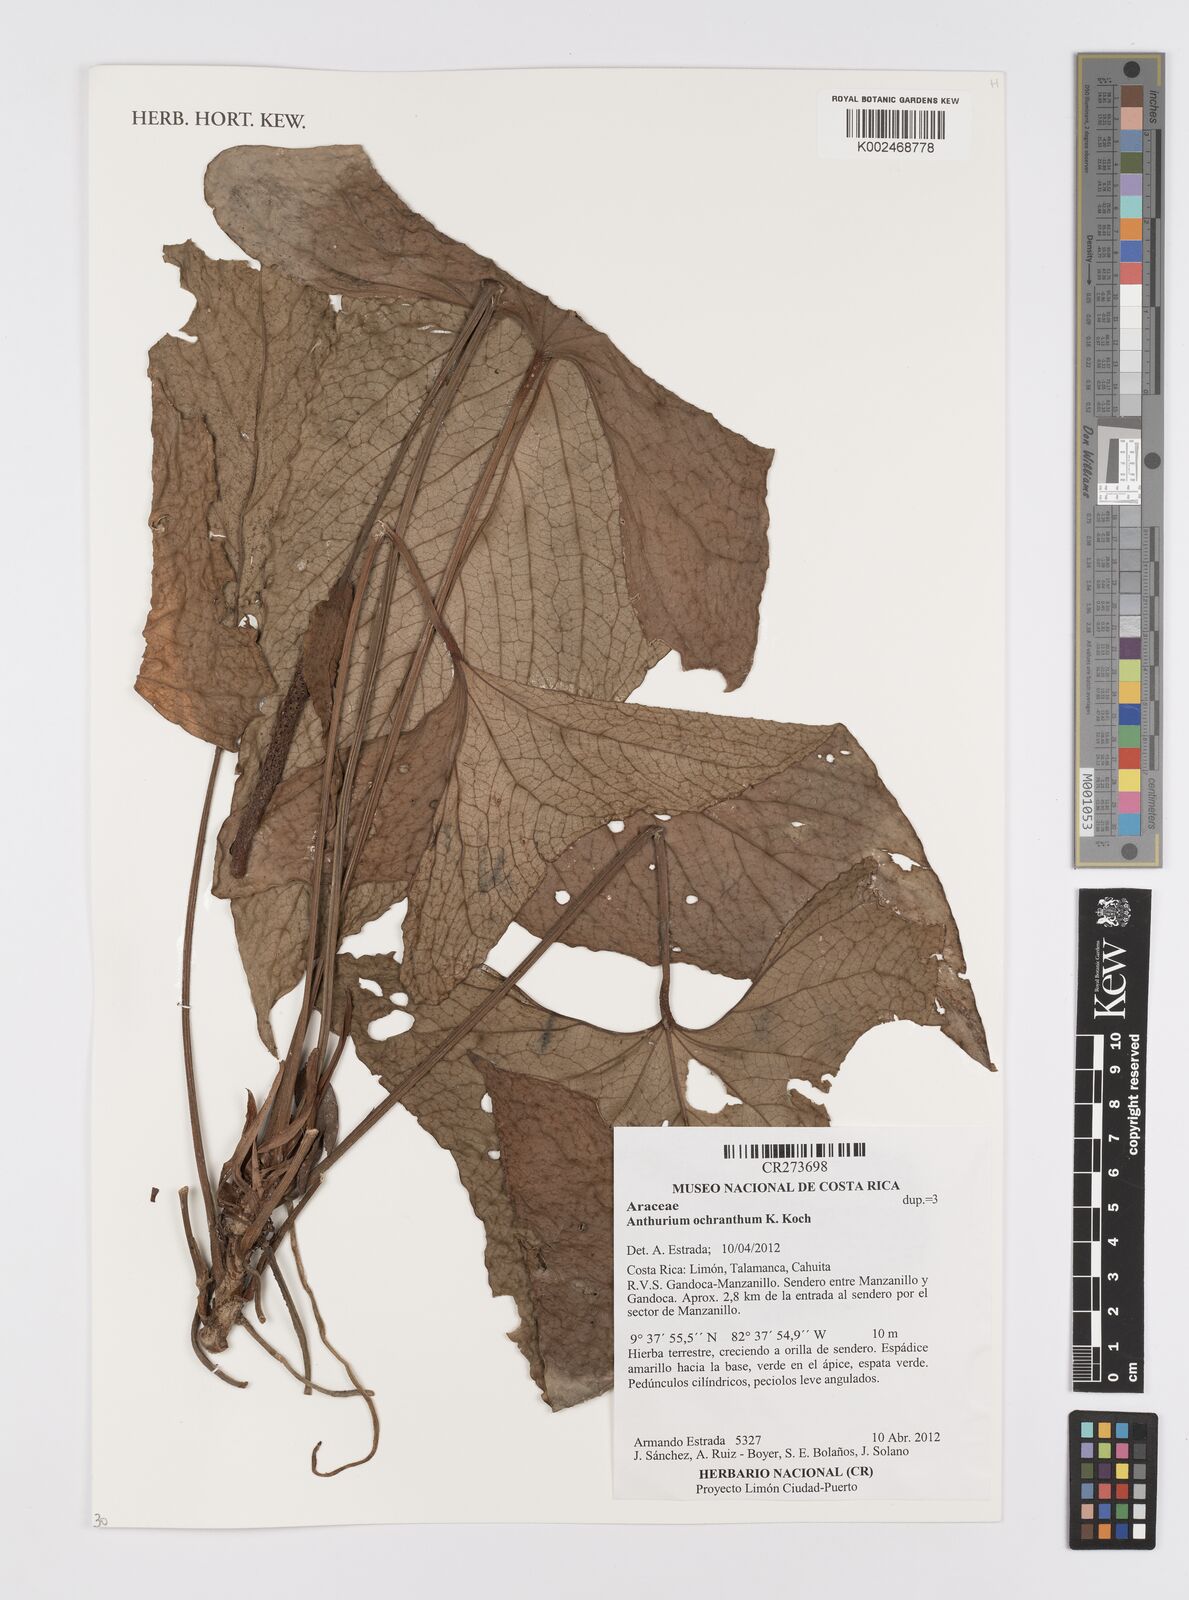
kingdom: Plantae
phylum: Tracheophyta
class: Liliopsida
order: Alismatales
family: Araceae
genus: Anthurium
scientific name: Anthurium ochranthum
